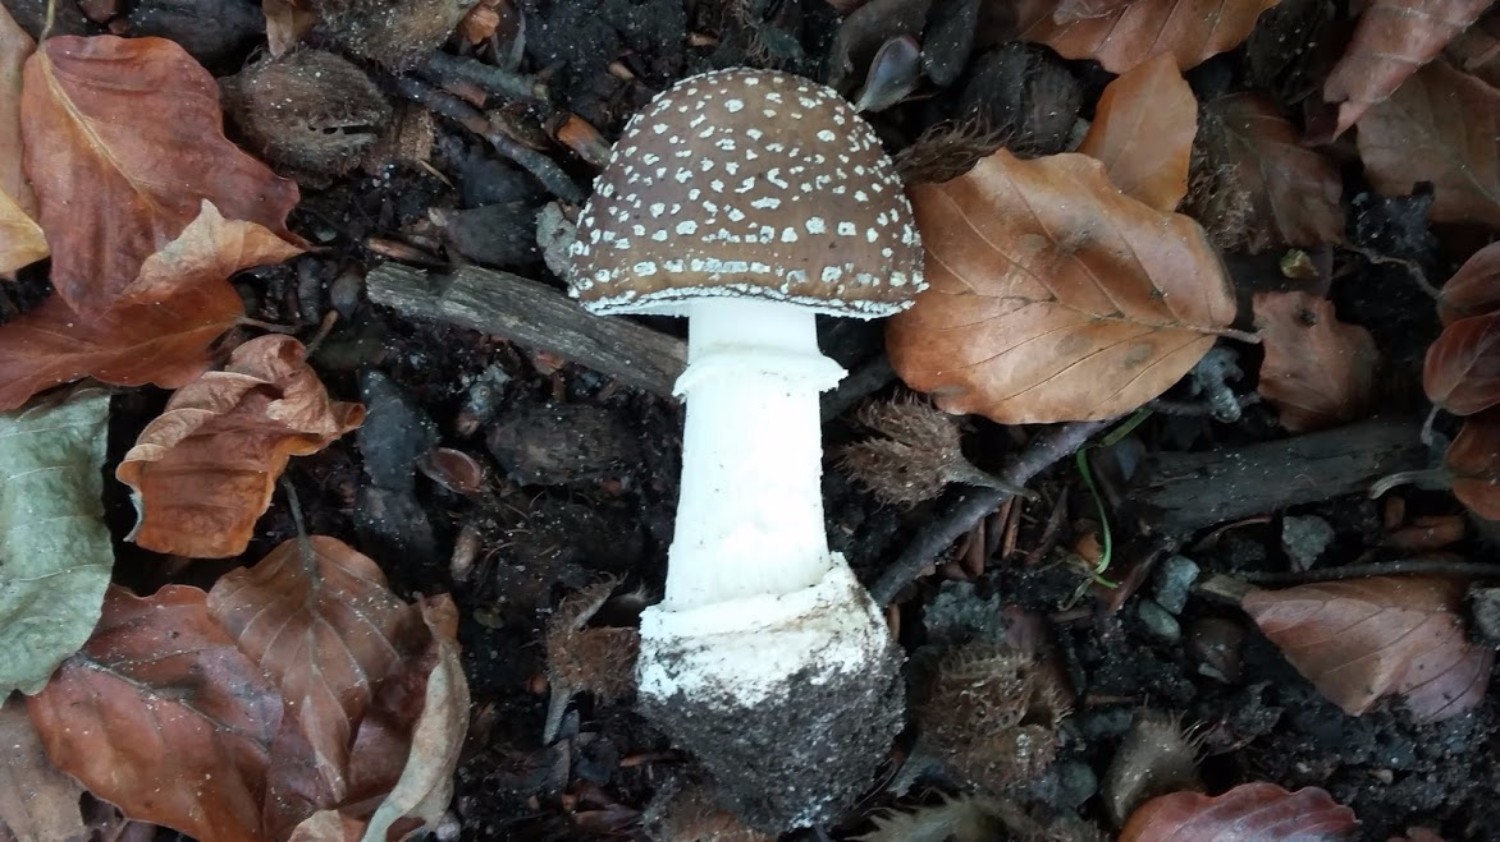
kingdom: Fungi
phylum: Basidiomycota
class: Agaricomycetes
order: Agaricales
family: Amanitaceae
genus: Amanita
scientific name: Amanita pantherina
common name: panter-fluesvamp
